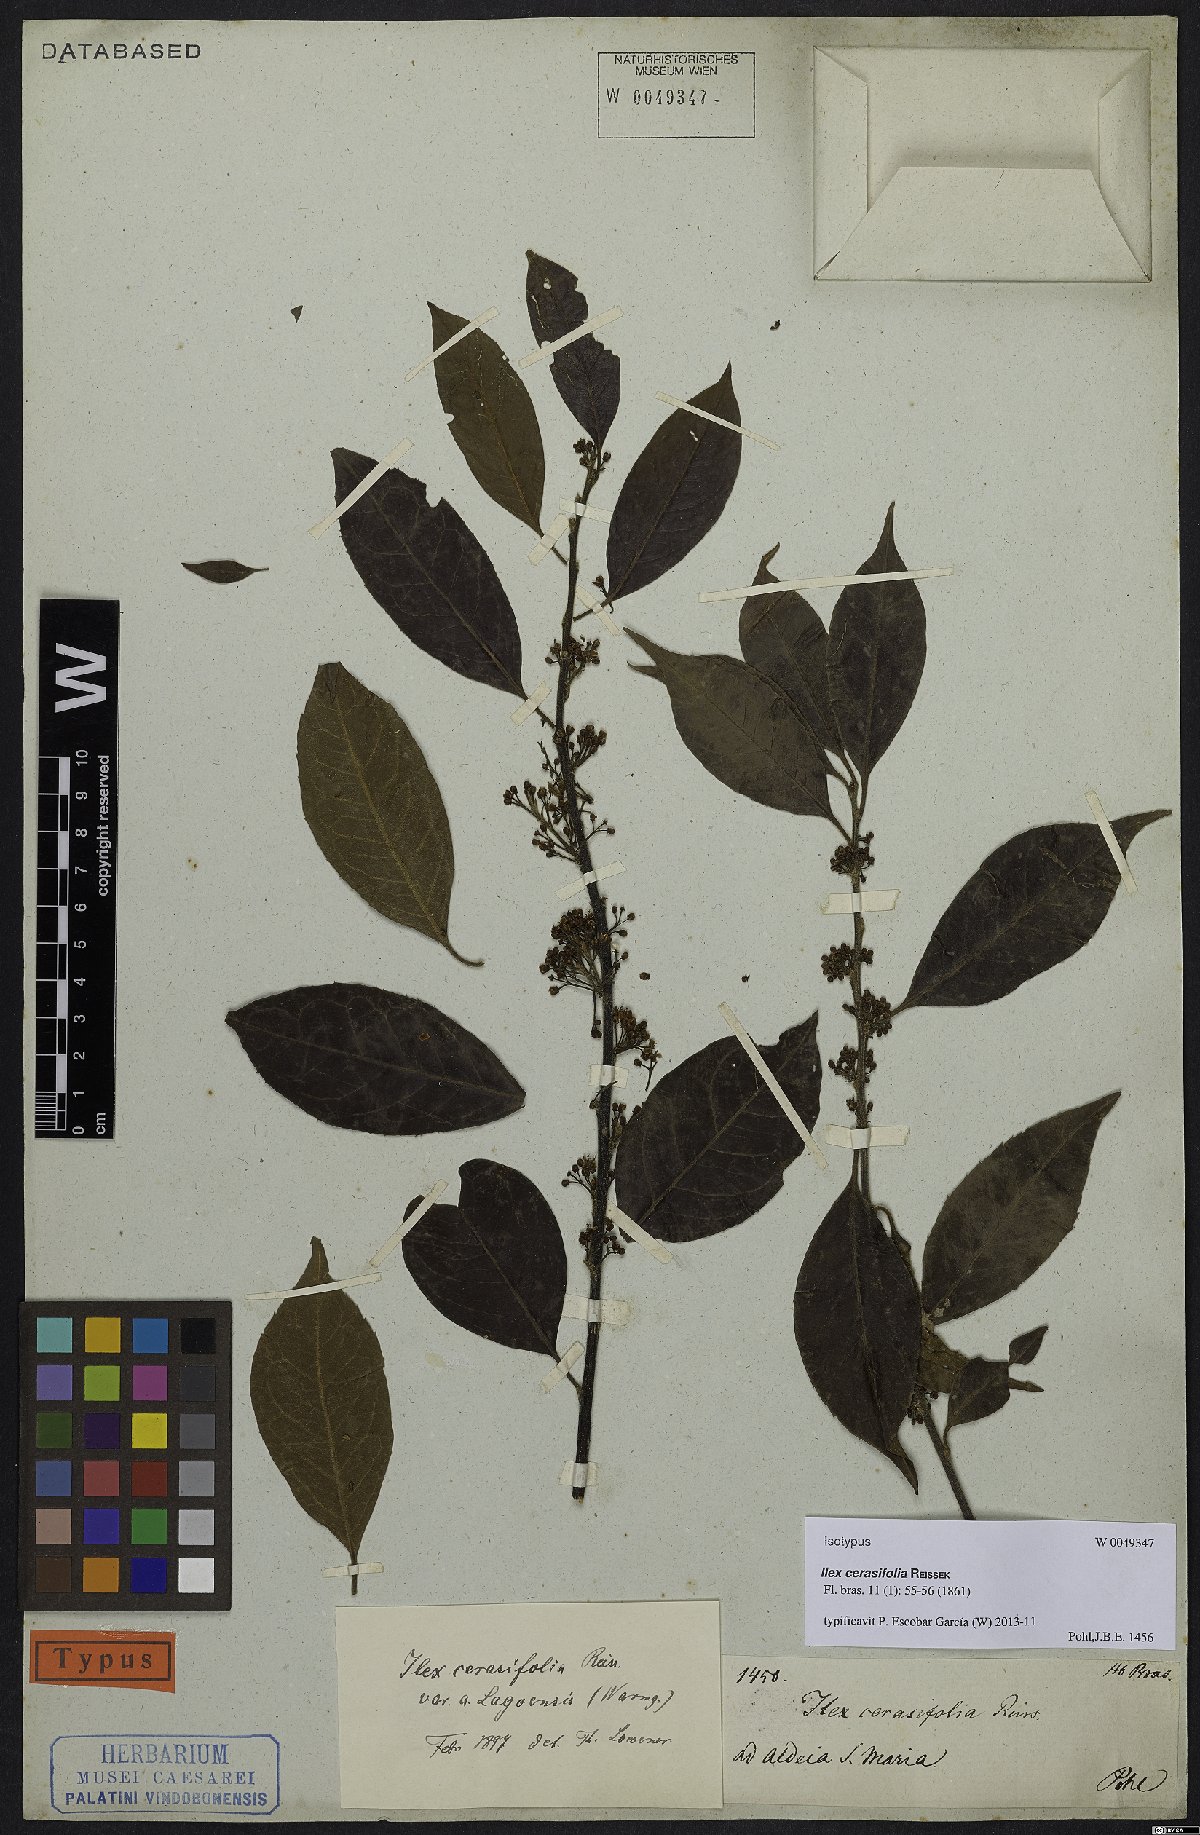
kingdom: Plantae
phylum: Tracheophyta
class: Magnoliopsida
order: Aquifoliales
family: Aquifoliaceae
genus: Ilex
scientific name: Ilex cerasifolia
